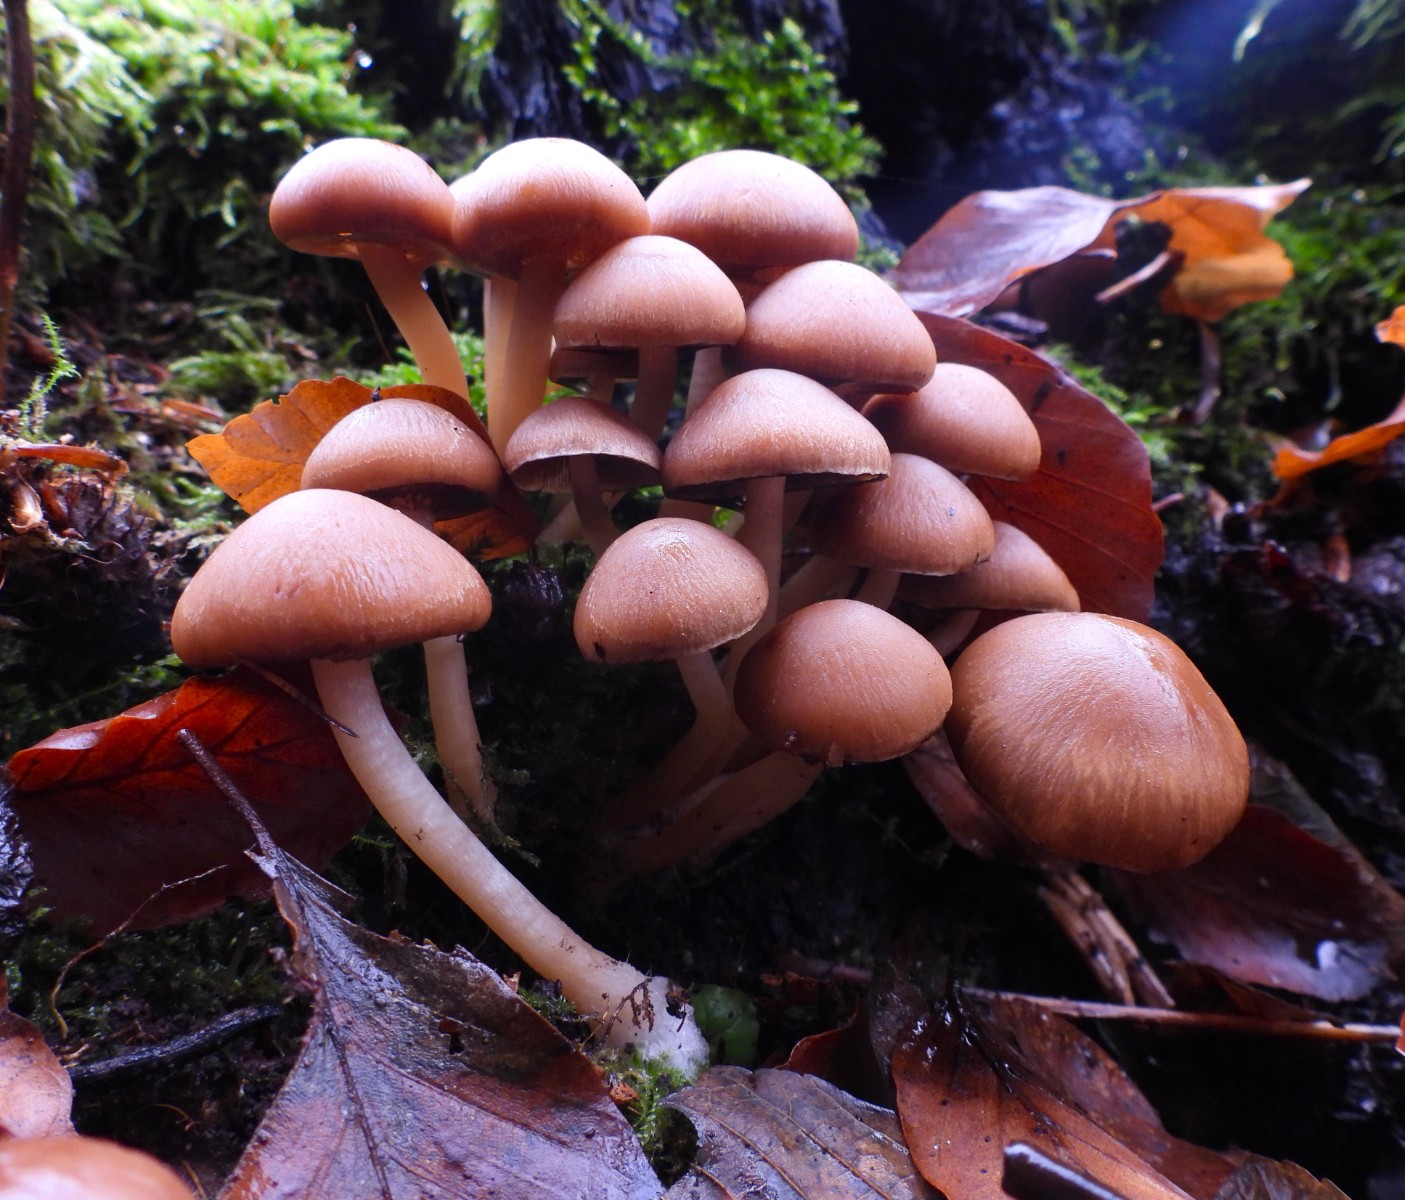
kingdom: Fungi
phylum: Basidiomycota
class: Agaricomycetes
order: Agaricales
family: Psathyrellaceae
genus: Psathyrella
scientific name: Psathyrella piluliformis
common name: lysstokket mørkhat
